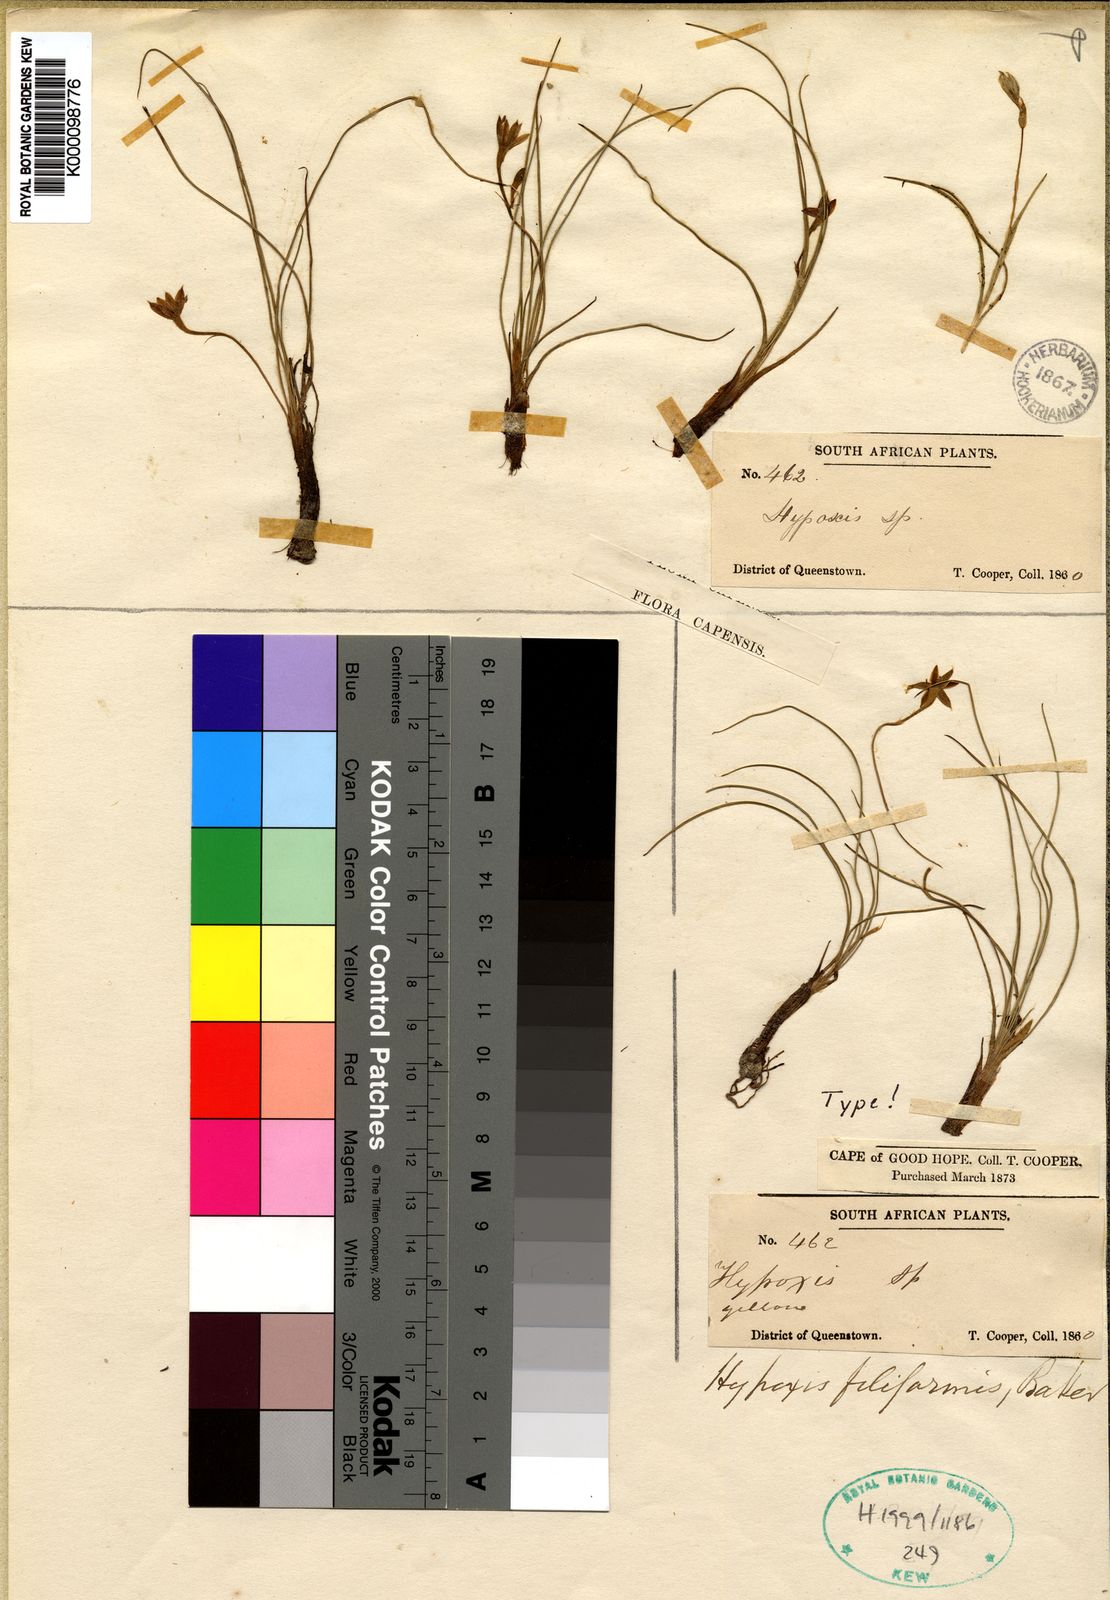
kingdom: Plantae
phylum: Tracheophyta
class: Liliopsida
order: Asparagales
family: Hypoxidaceae
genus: Hypoxis
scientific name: Hypoxis filiformis
